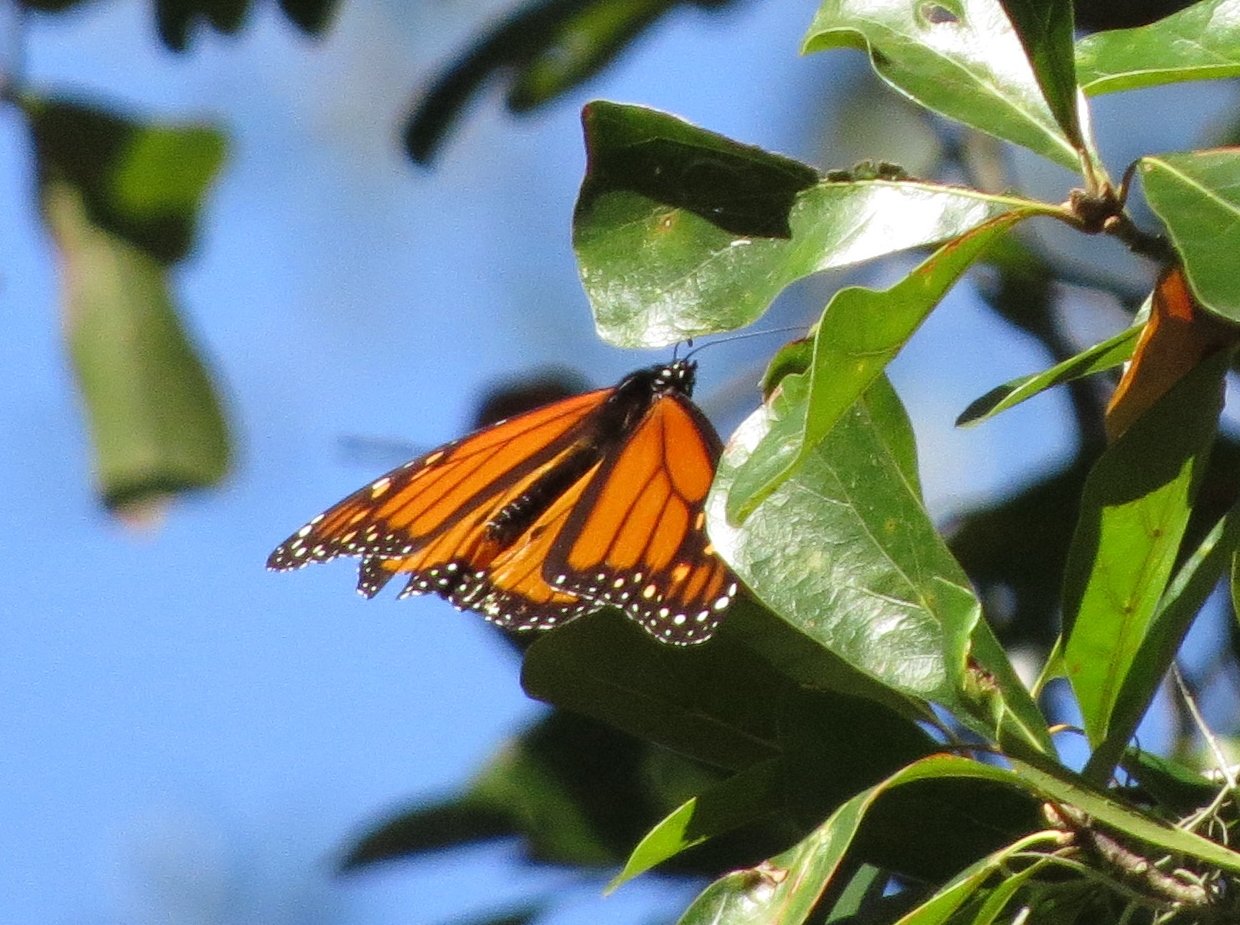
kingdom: Animalia
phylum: Arthropoda
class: Insecta
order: Lepidoptera
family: Nymphalidae
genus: Danaus
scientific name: Danaus plexippus
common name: Monarch
